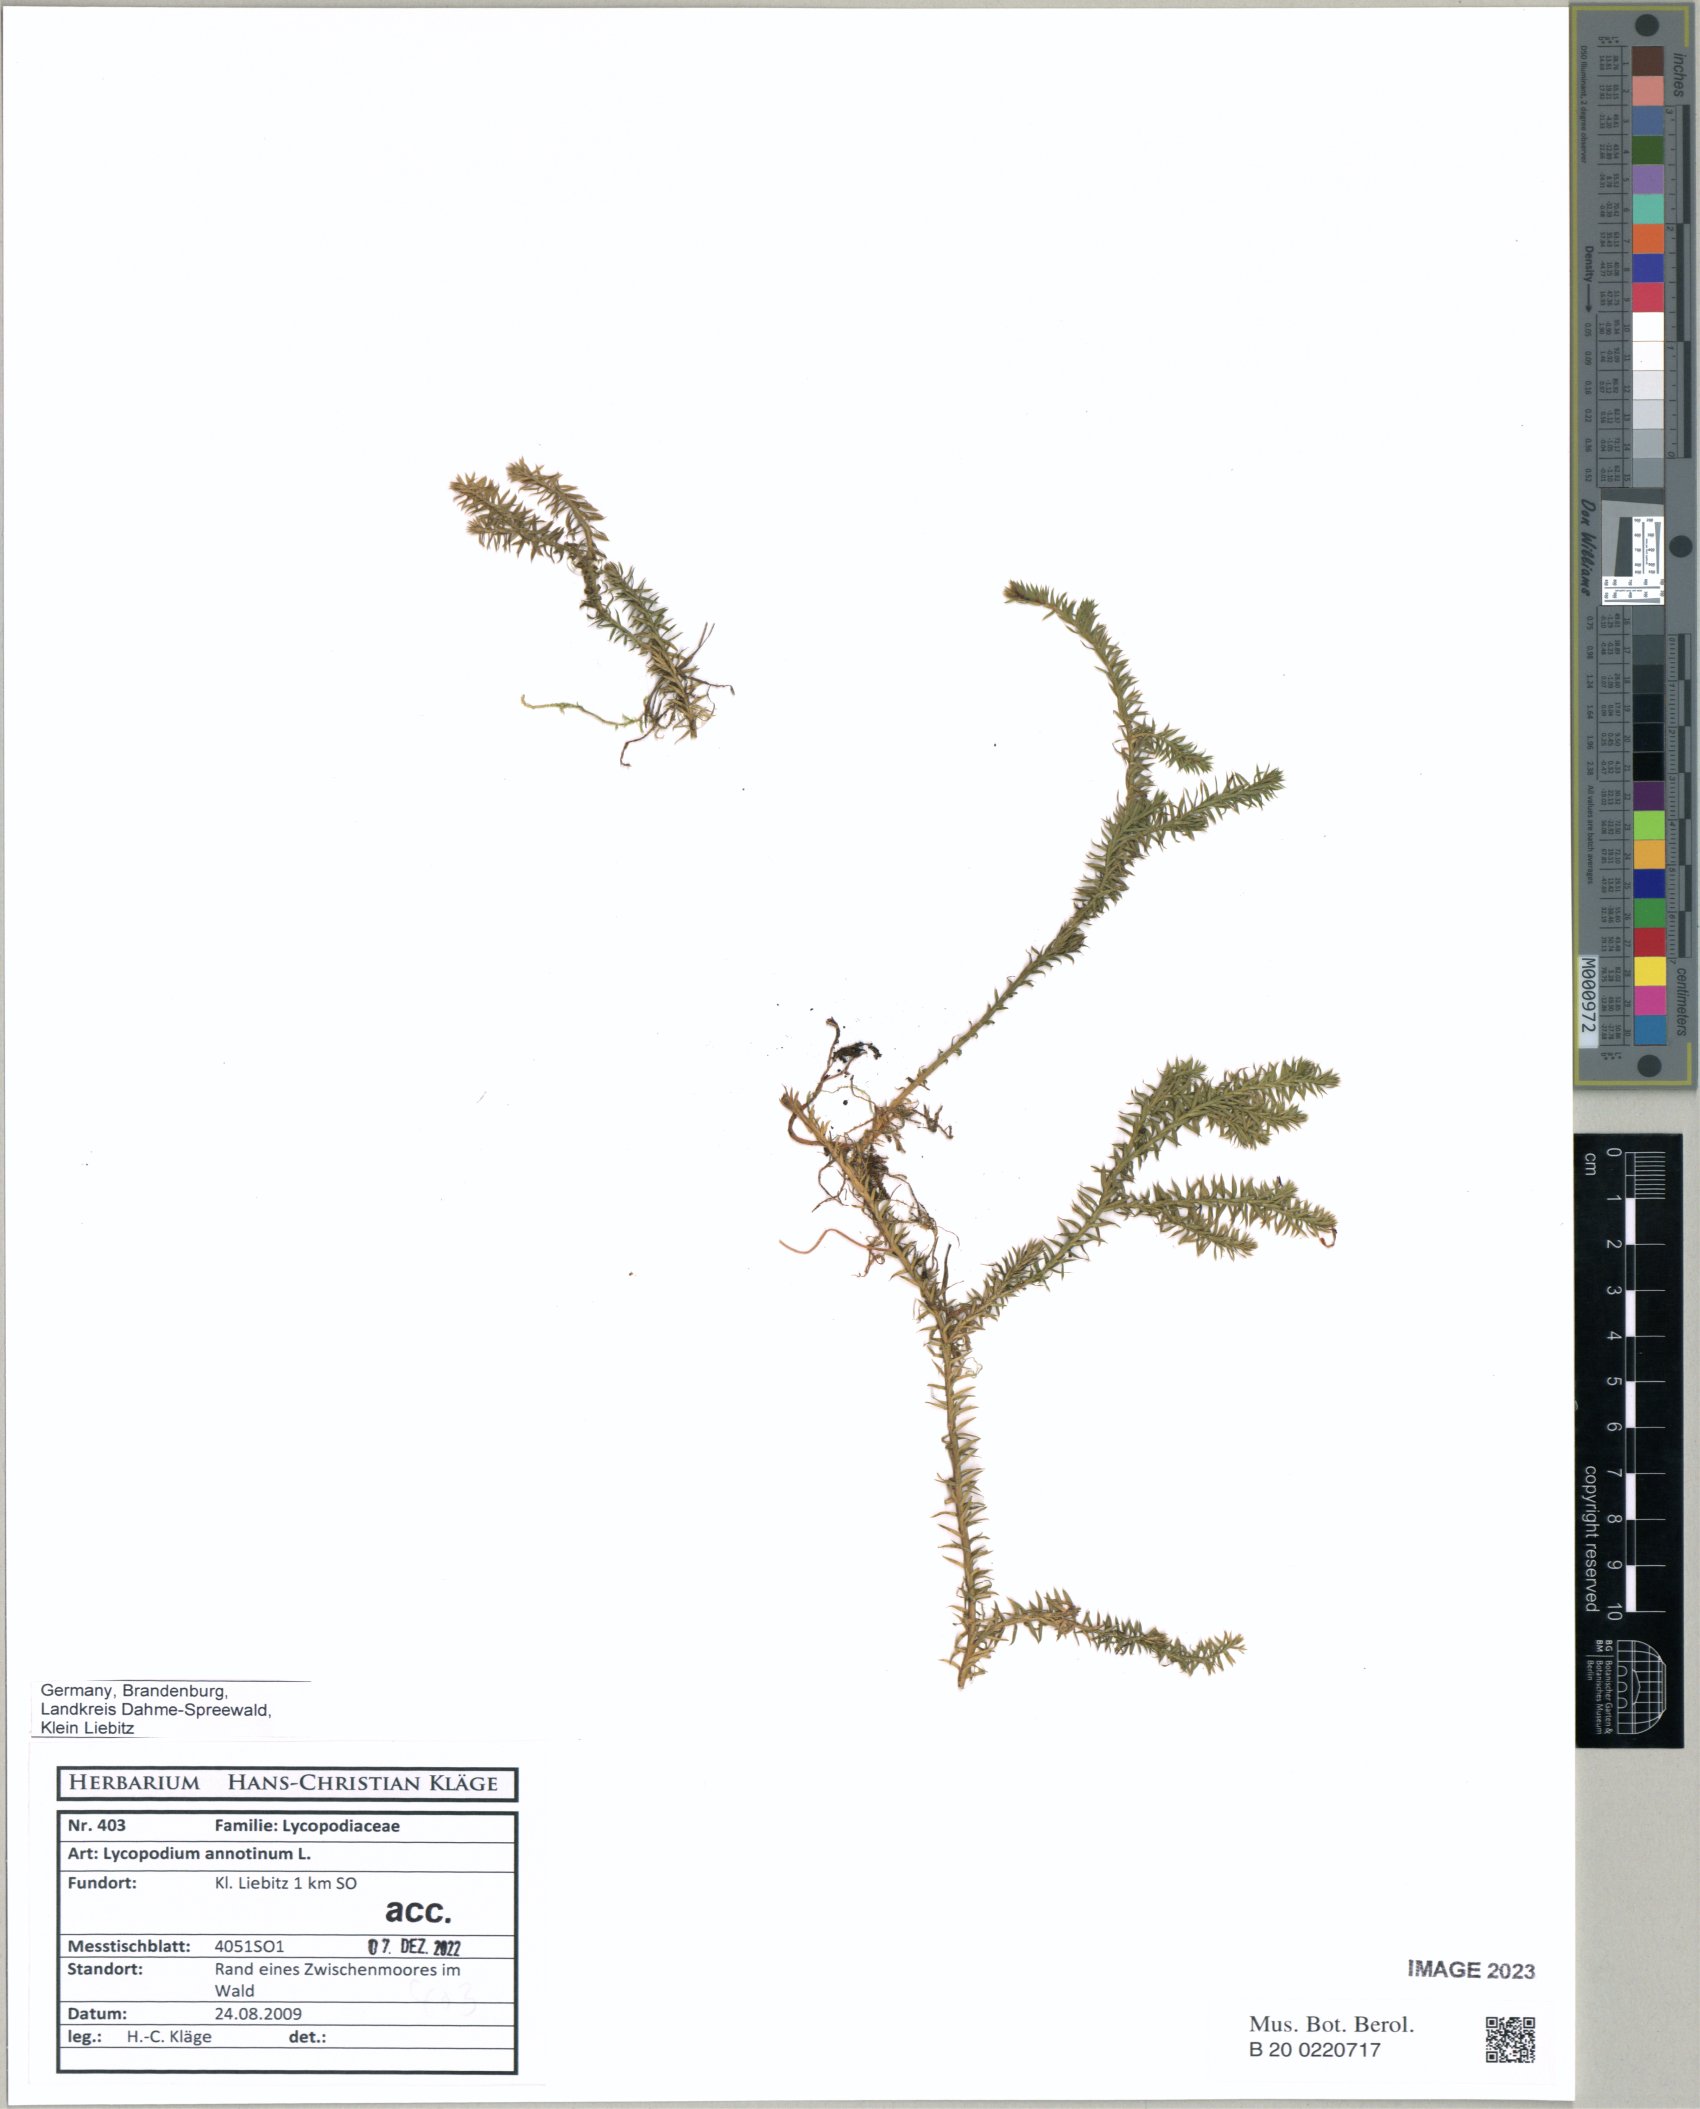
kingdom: Plantae
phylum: Tracheophyta
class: Lycopodiopsida
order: Lycopodiales
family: Lycopodiaceae
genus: Spinulum
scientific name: Spinulum annotinum
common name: Interrupted club-moss
